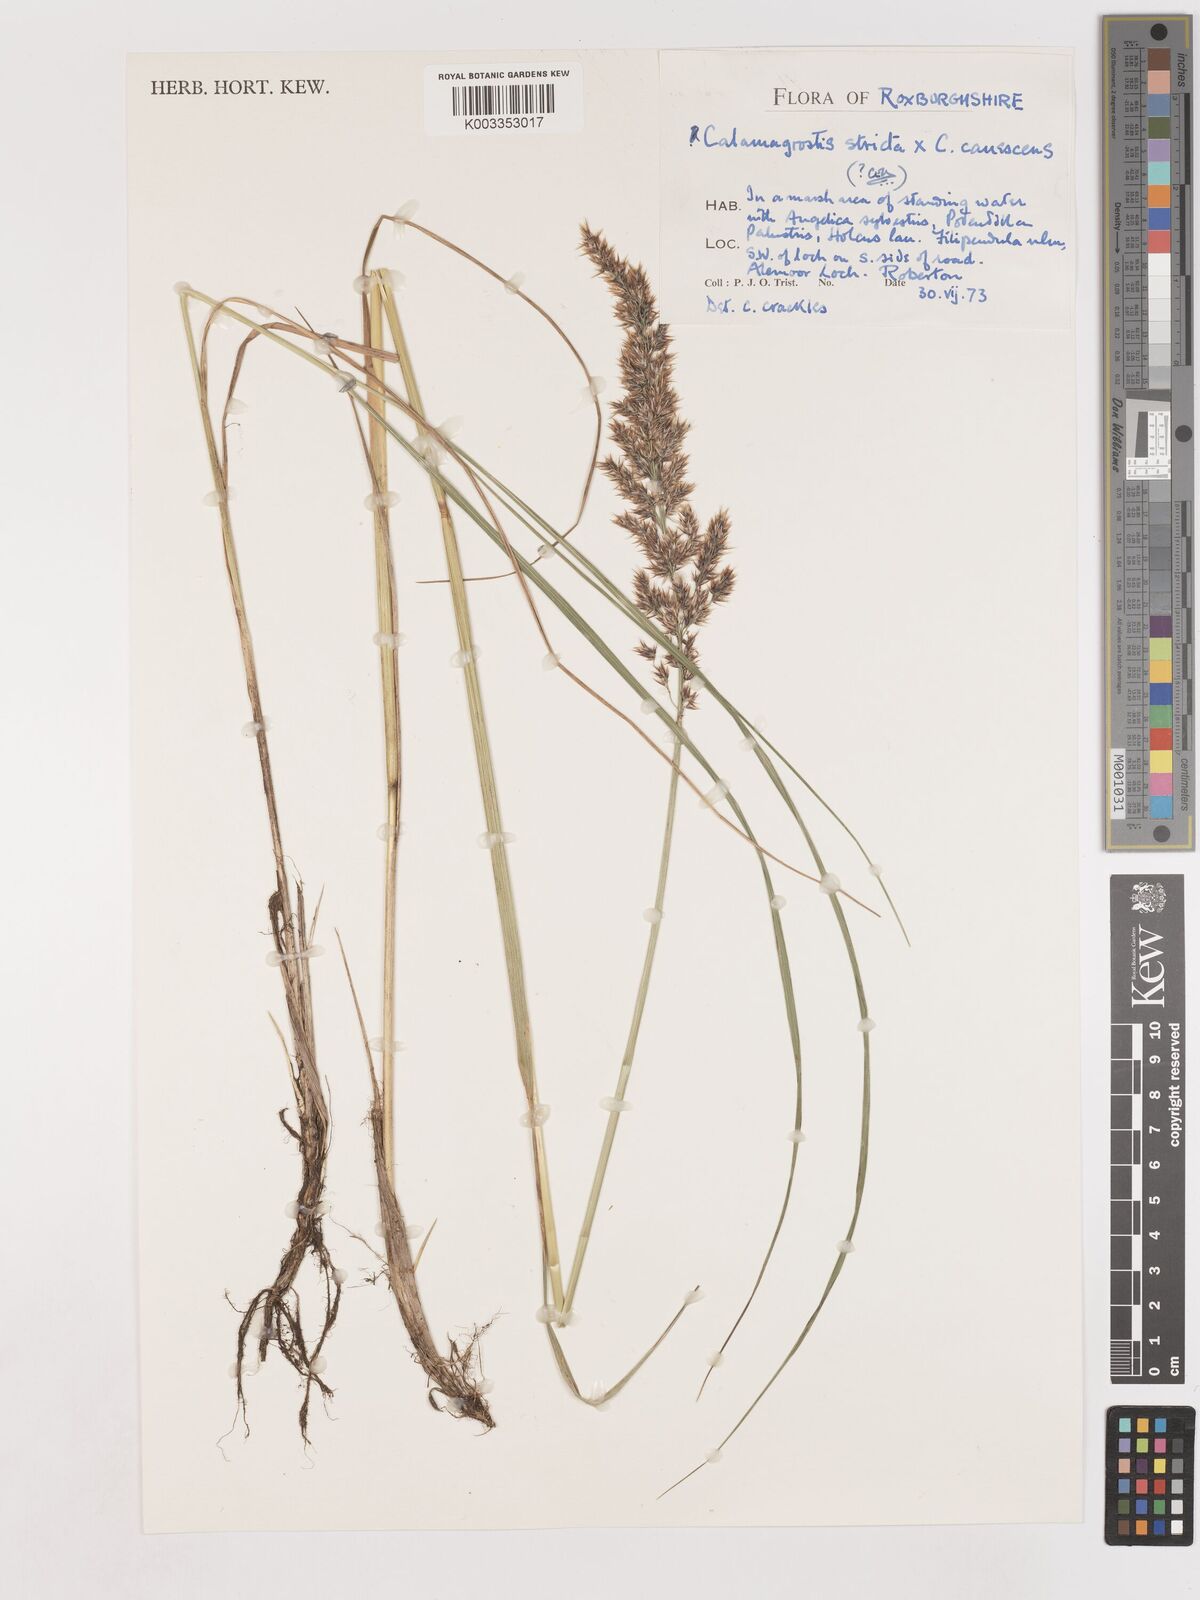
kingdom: Plantae
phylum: Tracheophyta
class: Liliopsida
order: Poales
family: Poaceae
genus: Calamagrostis
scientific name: Calamagrostis canescens
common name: Purple small-reed
